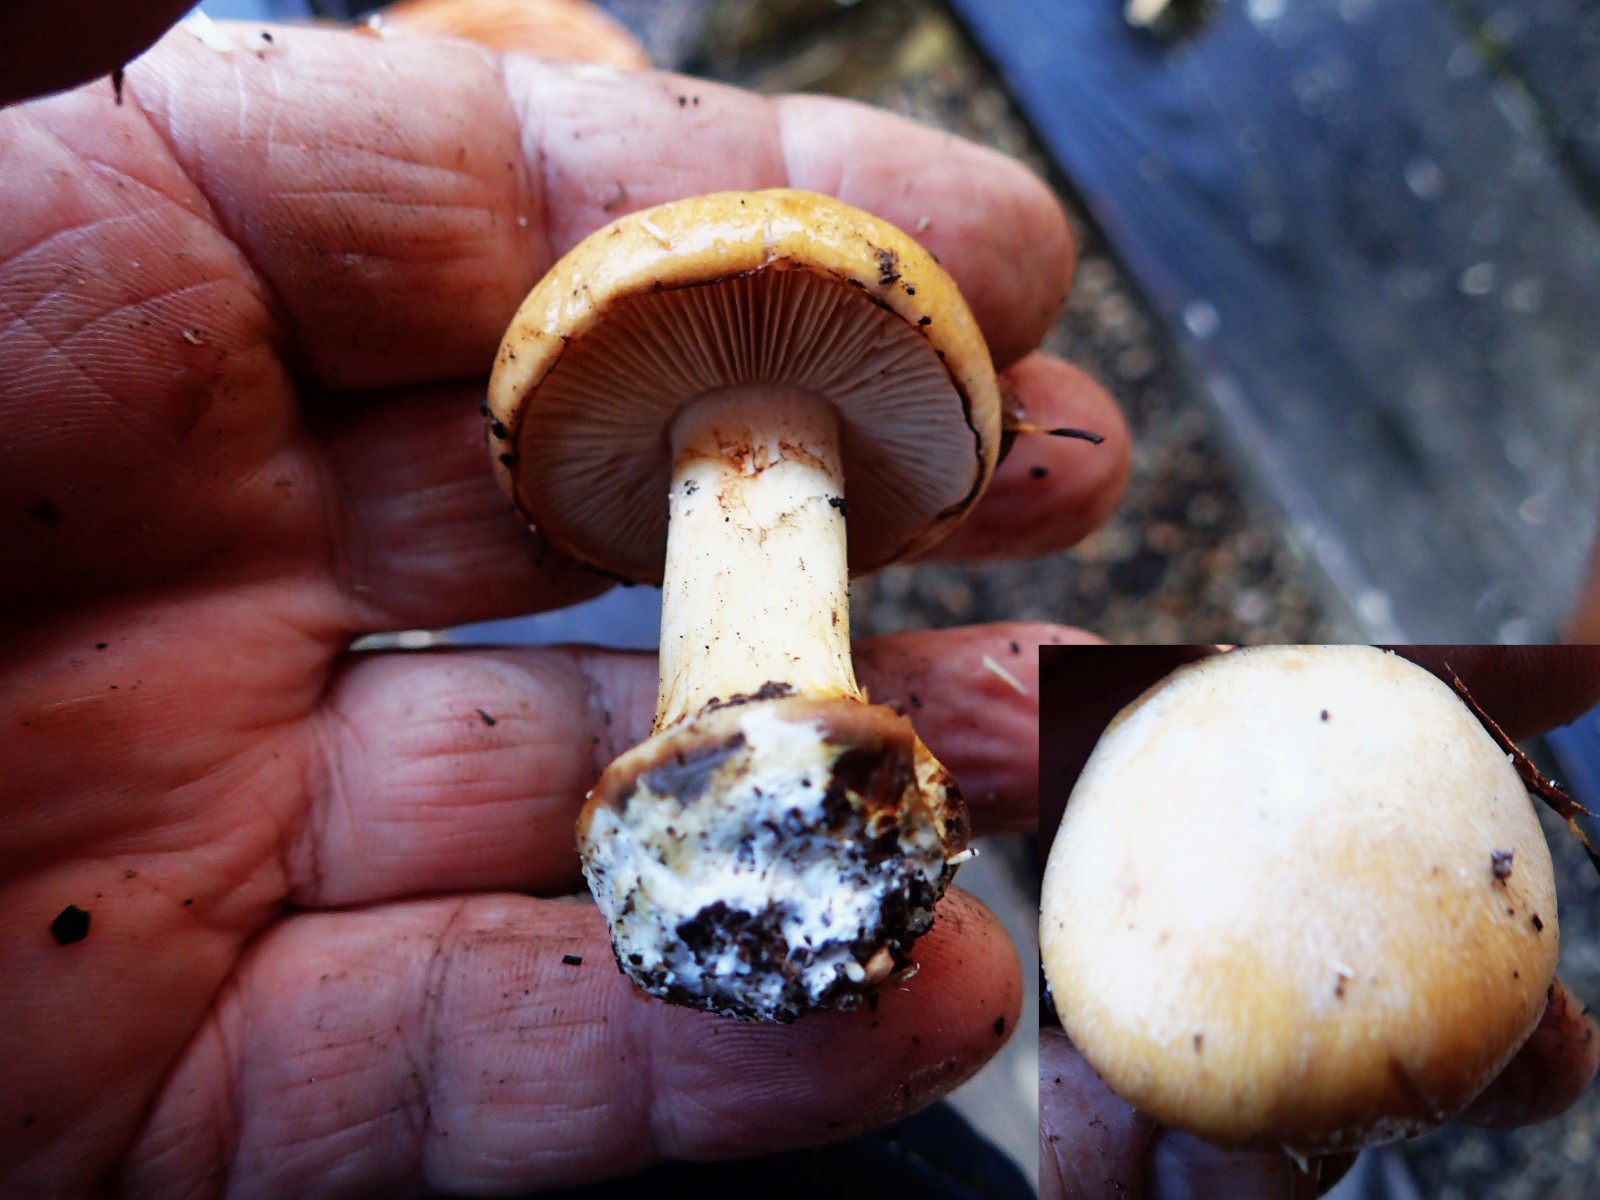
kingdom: Fungi
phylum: Basidiomycota
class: Agaricomycetes
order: Agaricales
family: Cortinariaceae
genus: Cortinarius
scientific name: Cortinarius anserinus
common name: bøge-slørhat
